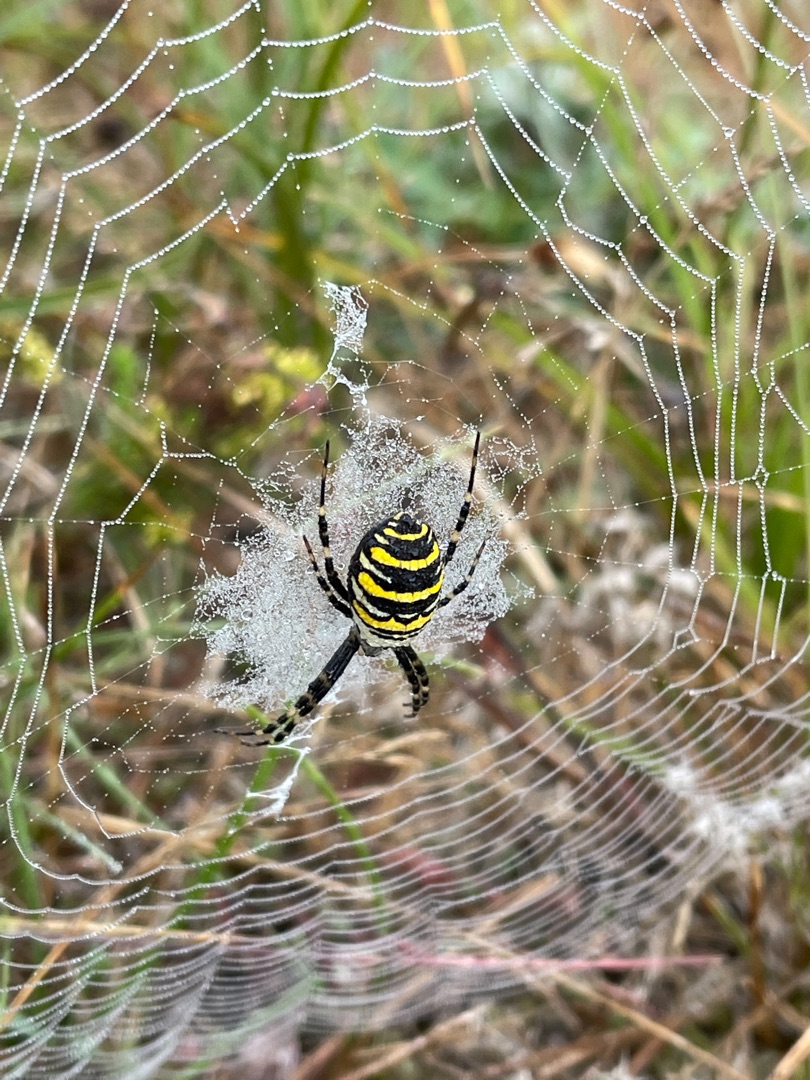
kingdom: Animalia
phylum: Arthropoda
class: Arachnida
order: Araneae
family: Araneidae
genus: Argiope
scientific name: Argiope bruennichi
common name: Hvepseedderkop
